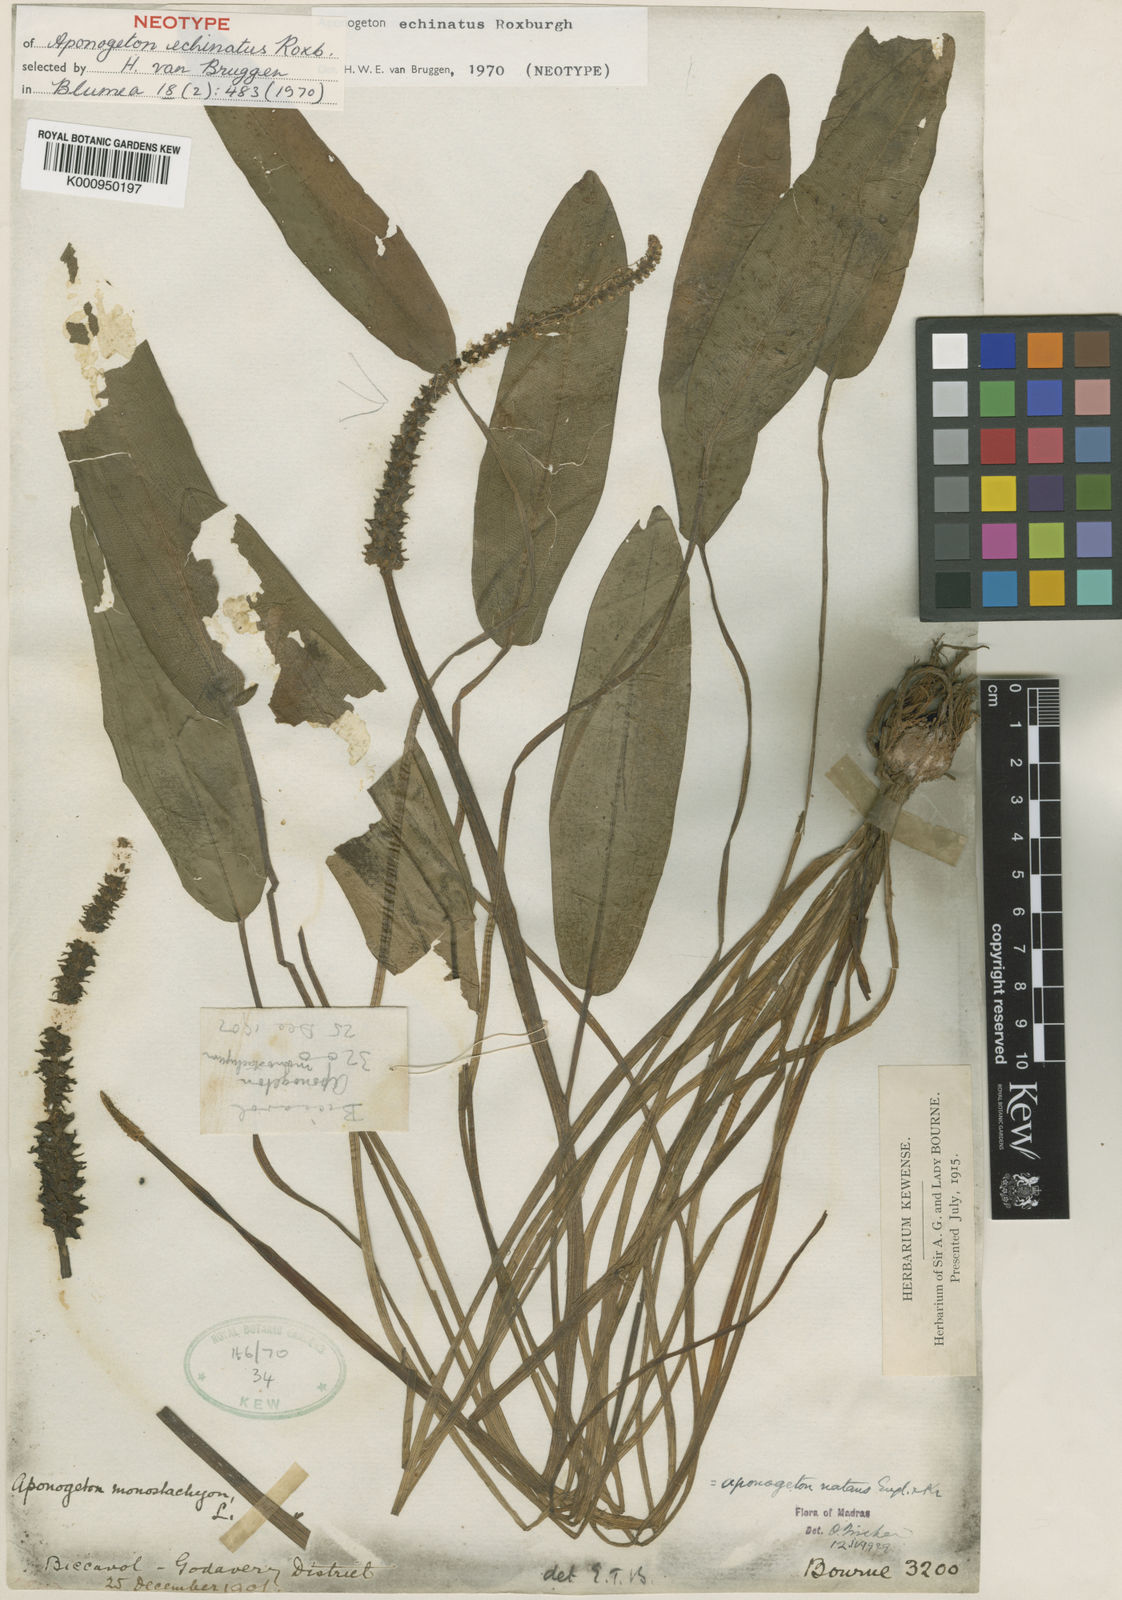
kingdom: Plantae
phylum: Tracheophyta
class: Liliopsida
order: Alismatales
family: Aponogetonaceae
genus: Aponogeton
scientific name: Aponogeton crispus
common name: Crinkled aponogeton
